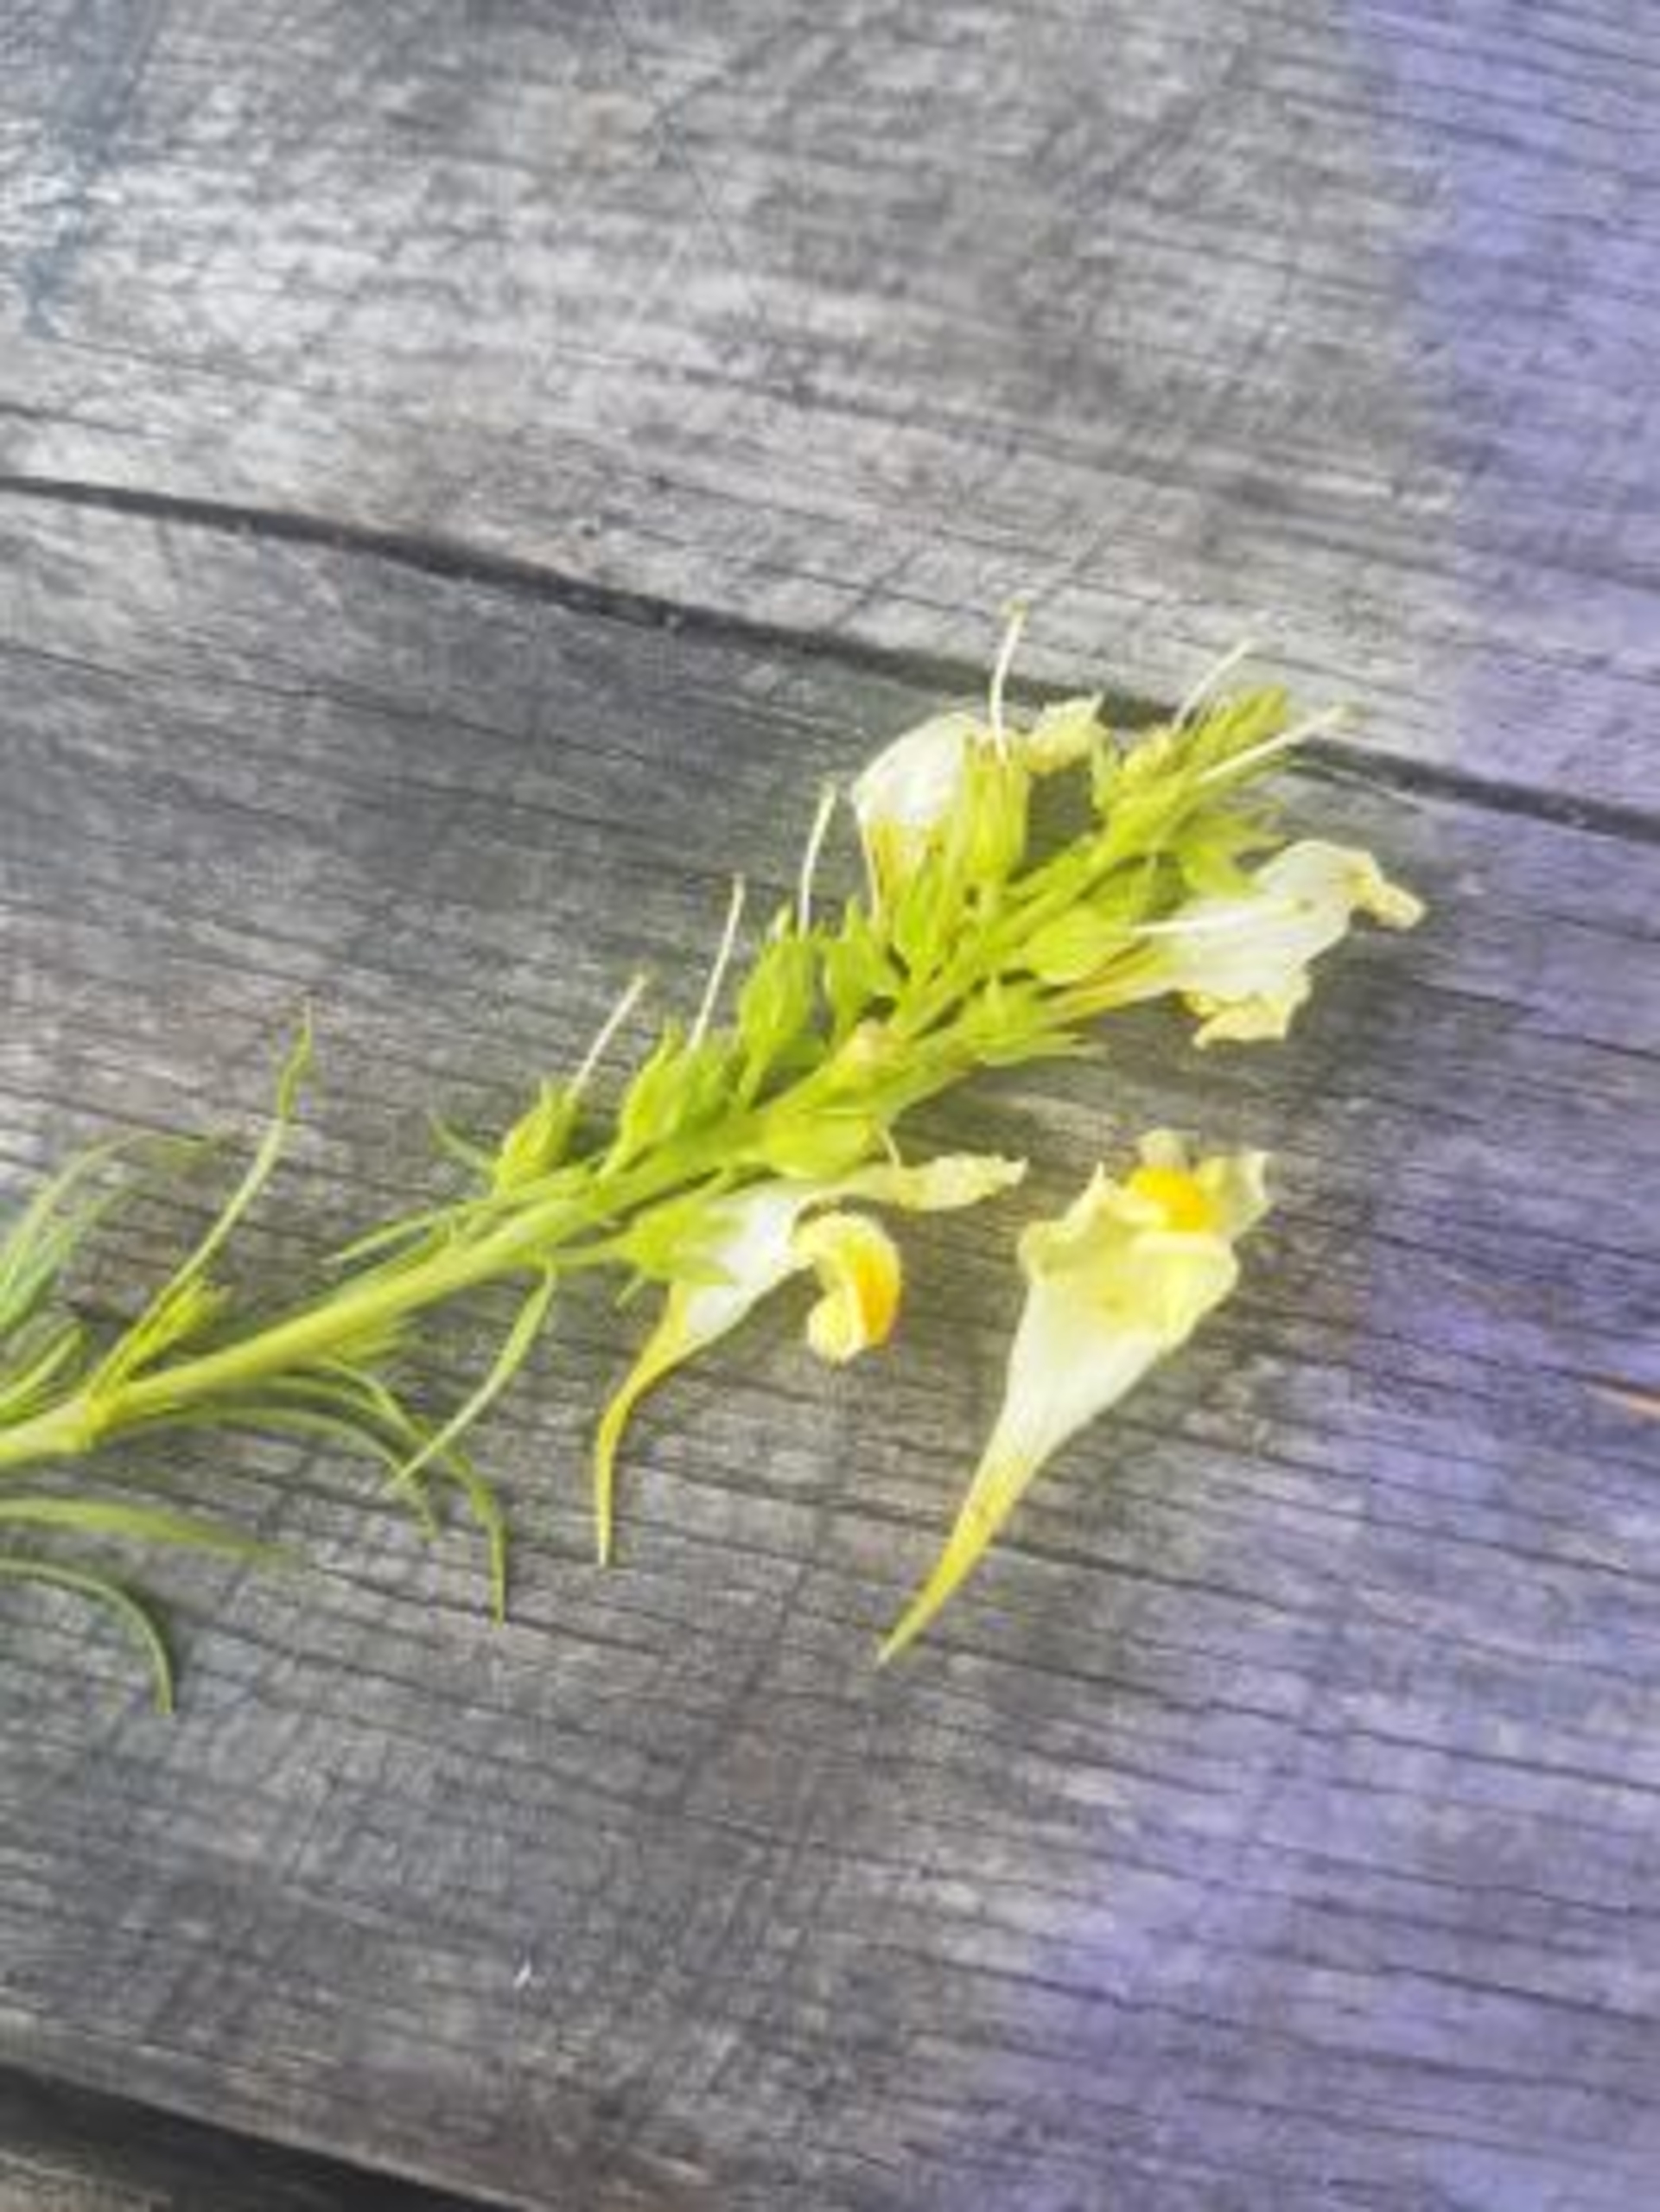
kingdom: Plantae
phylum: Tracheophyta
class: Magnoliopsida
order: Lamiales
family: Plantaginaceae
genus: Linaria
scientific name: Linaria vulgaris
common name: Almindelig torskemund
